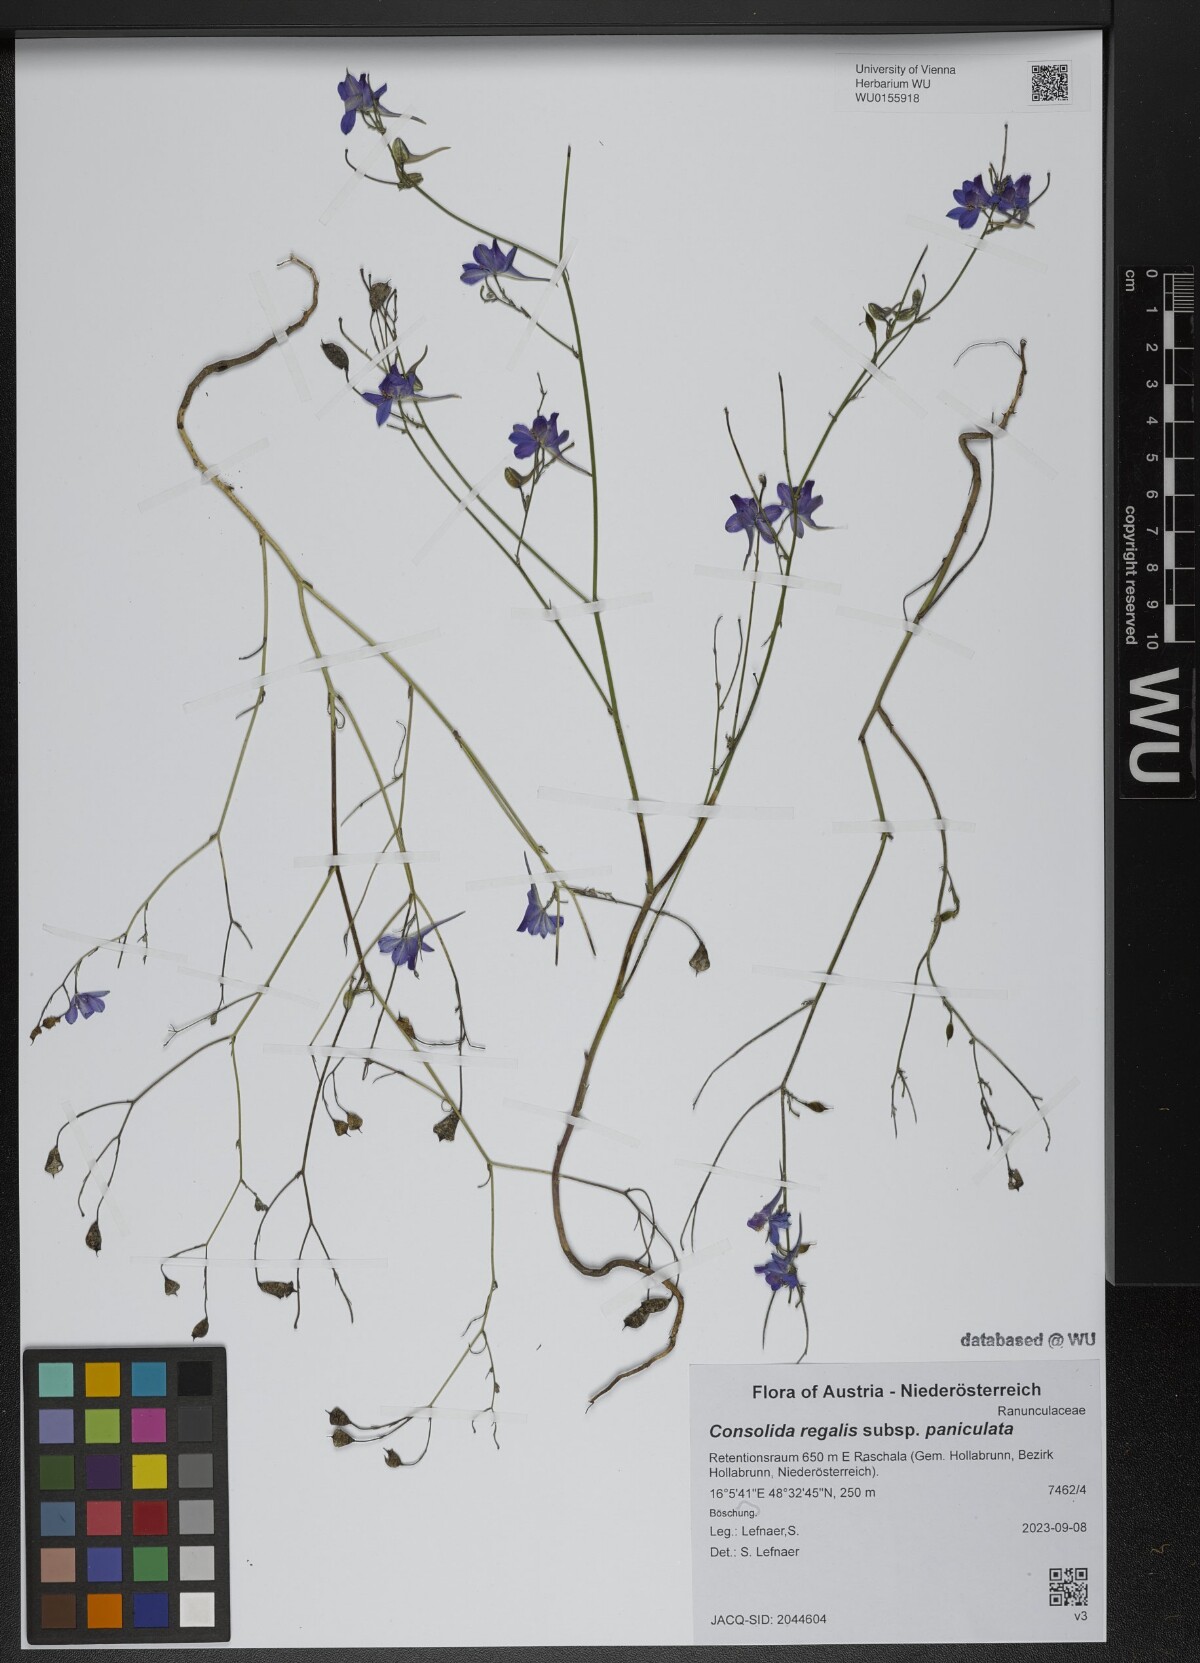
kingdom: Plantae
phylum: Tracheophyta
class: Magnoliopsida
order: Ranunculales
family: Ranunculaceae
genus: Delphinium
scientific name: Delphinium consolida
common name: Branching larkspur
